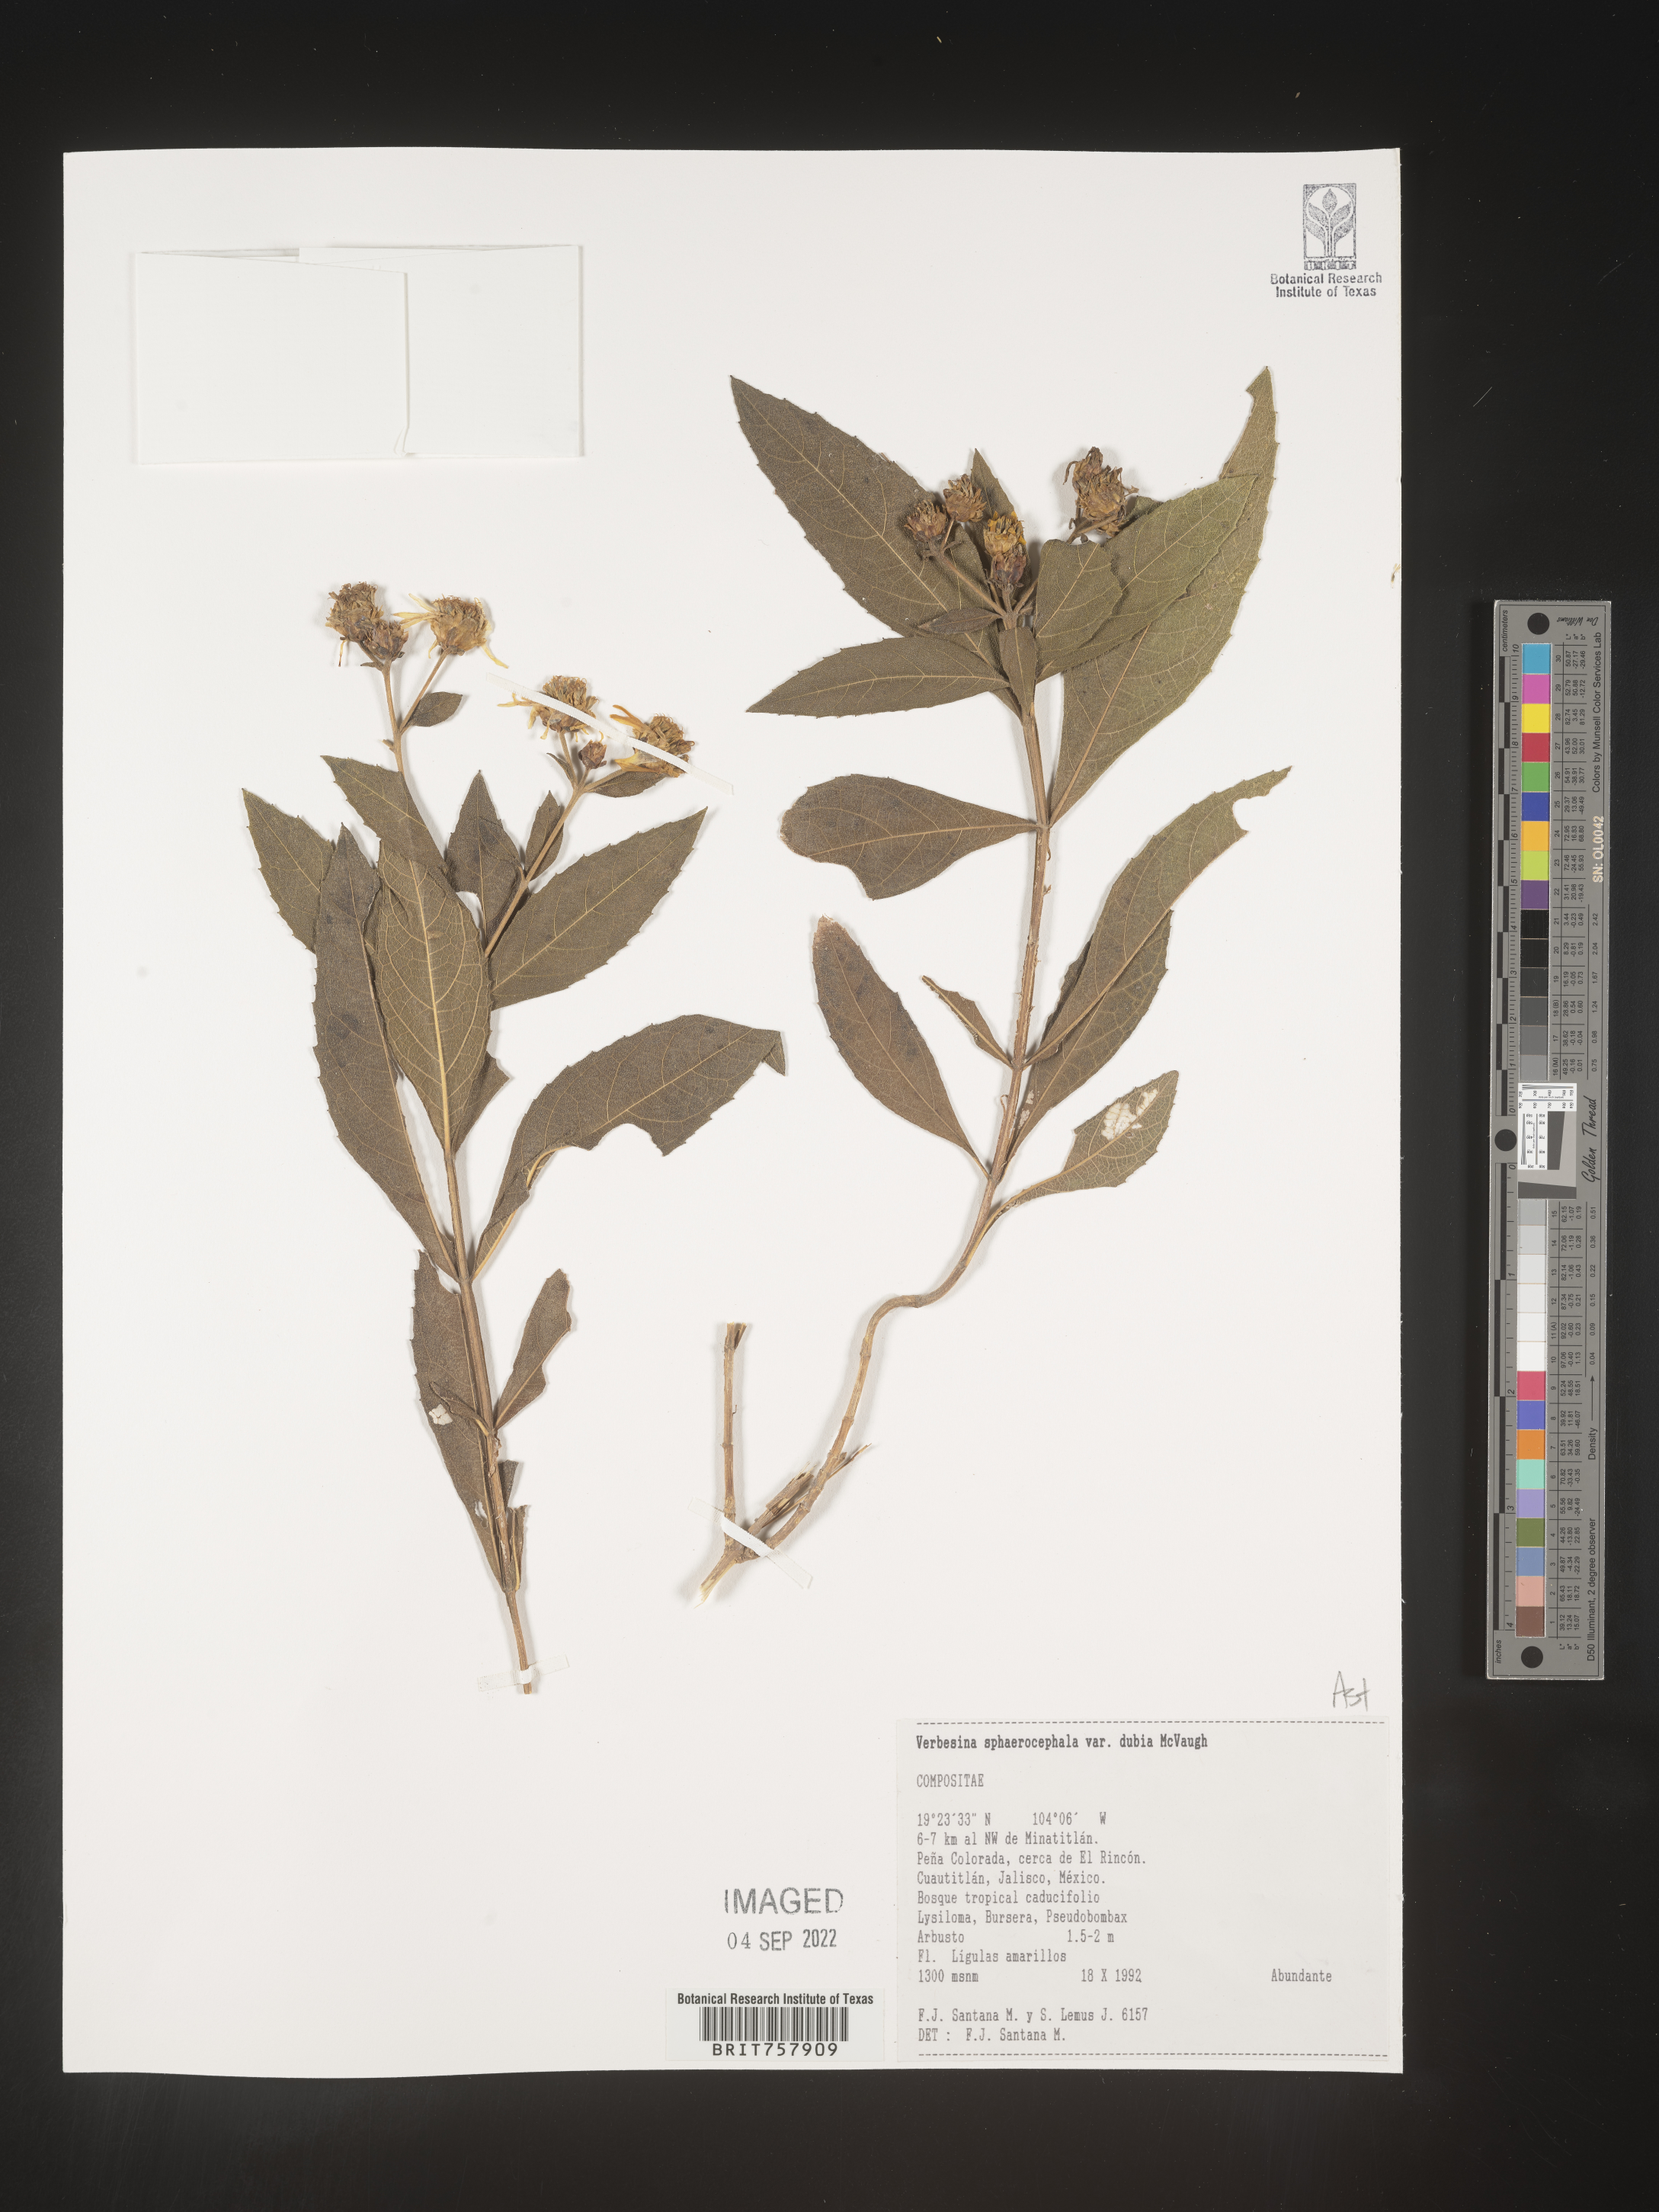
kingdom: Plantae
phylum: Tracheophyta
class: Magnoliopsida
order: Asterales
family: Asteraceae
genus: Verbesina
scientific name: Verbesina
